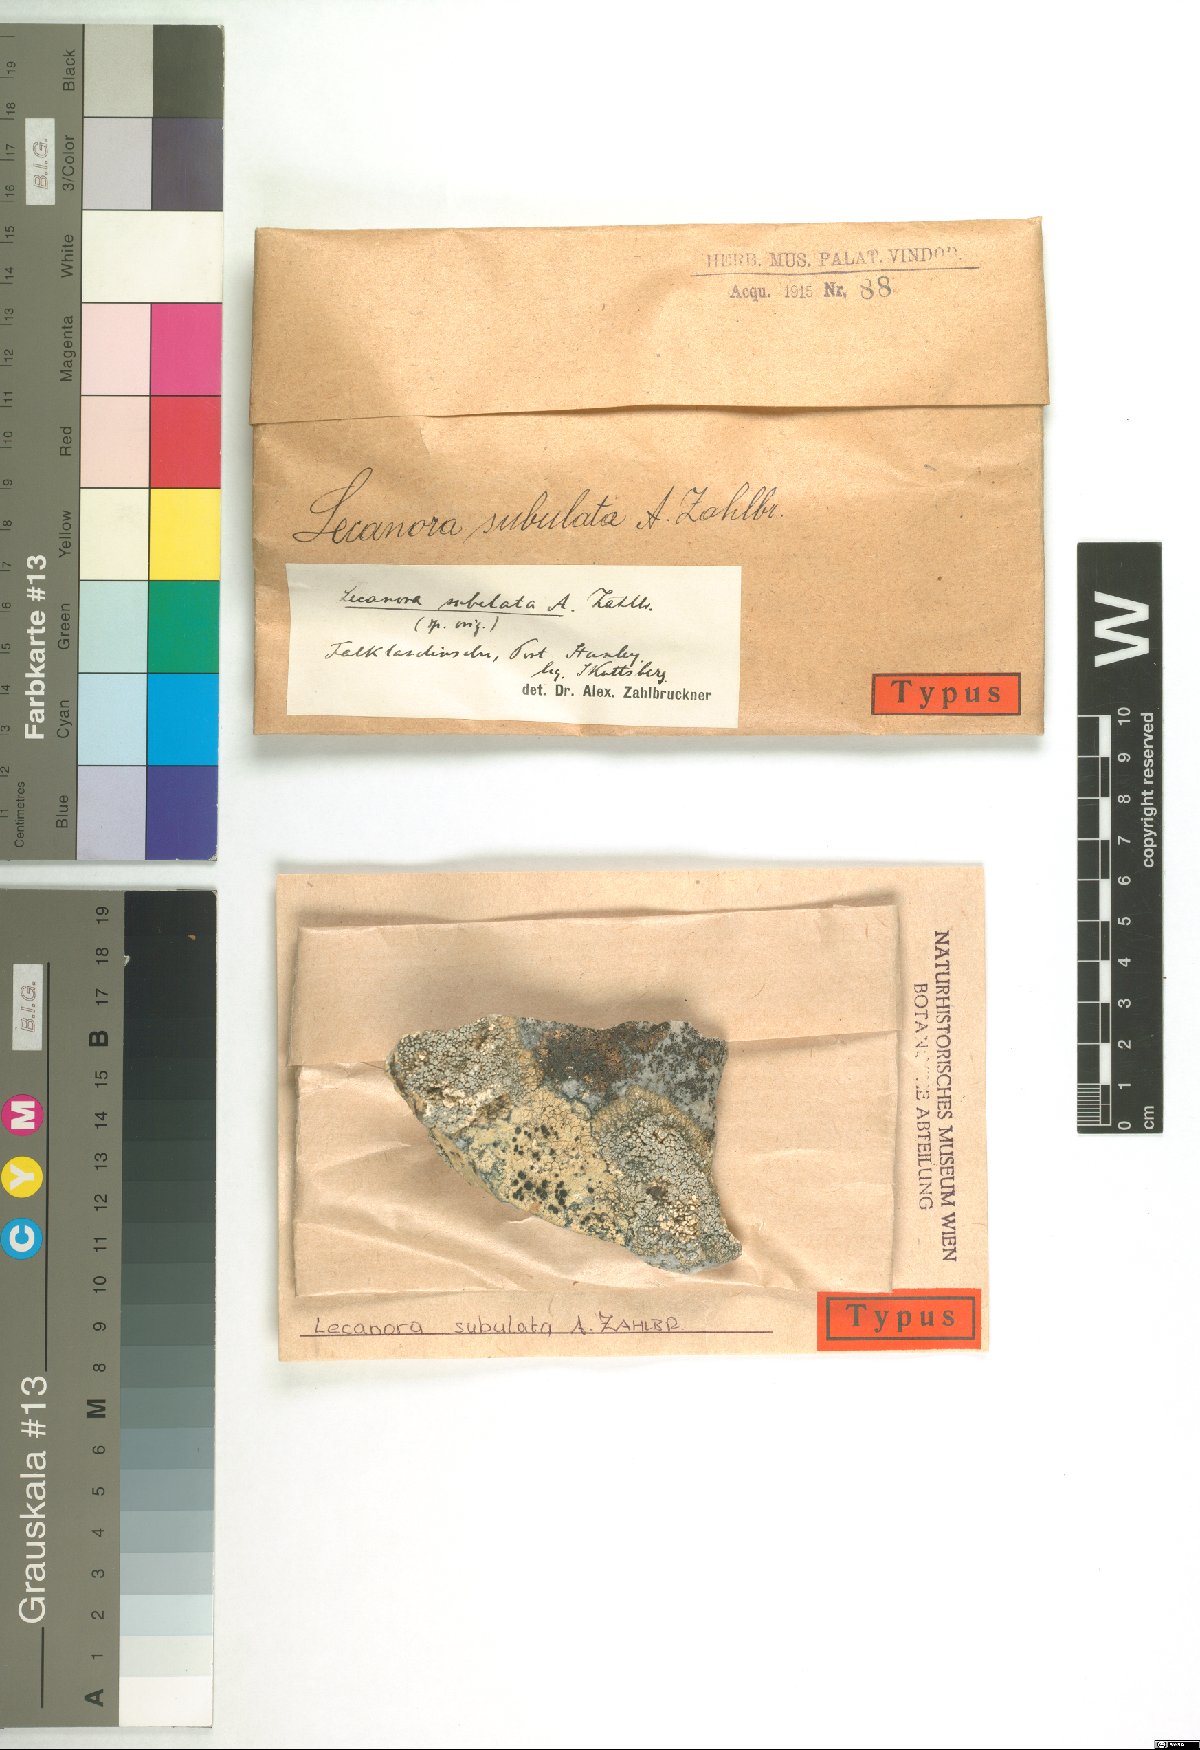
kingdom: Fungi
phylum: Ascomycota
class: Lecanoromycetes
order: Lecanorales
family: Lecanoraceae
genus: Lecanora
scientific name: Lecanora subflava
